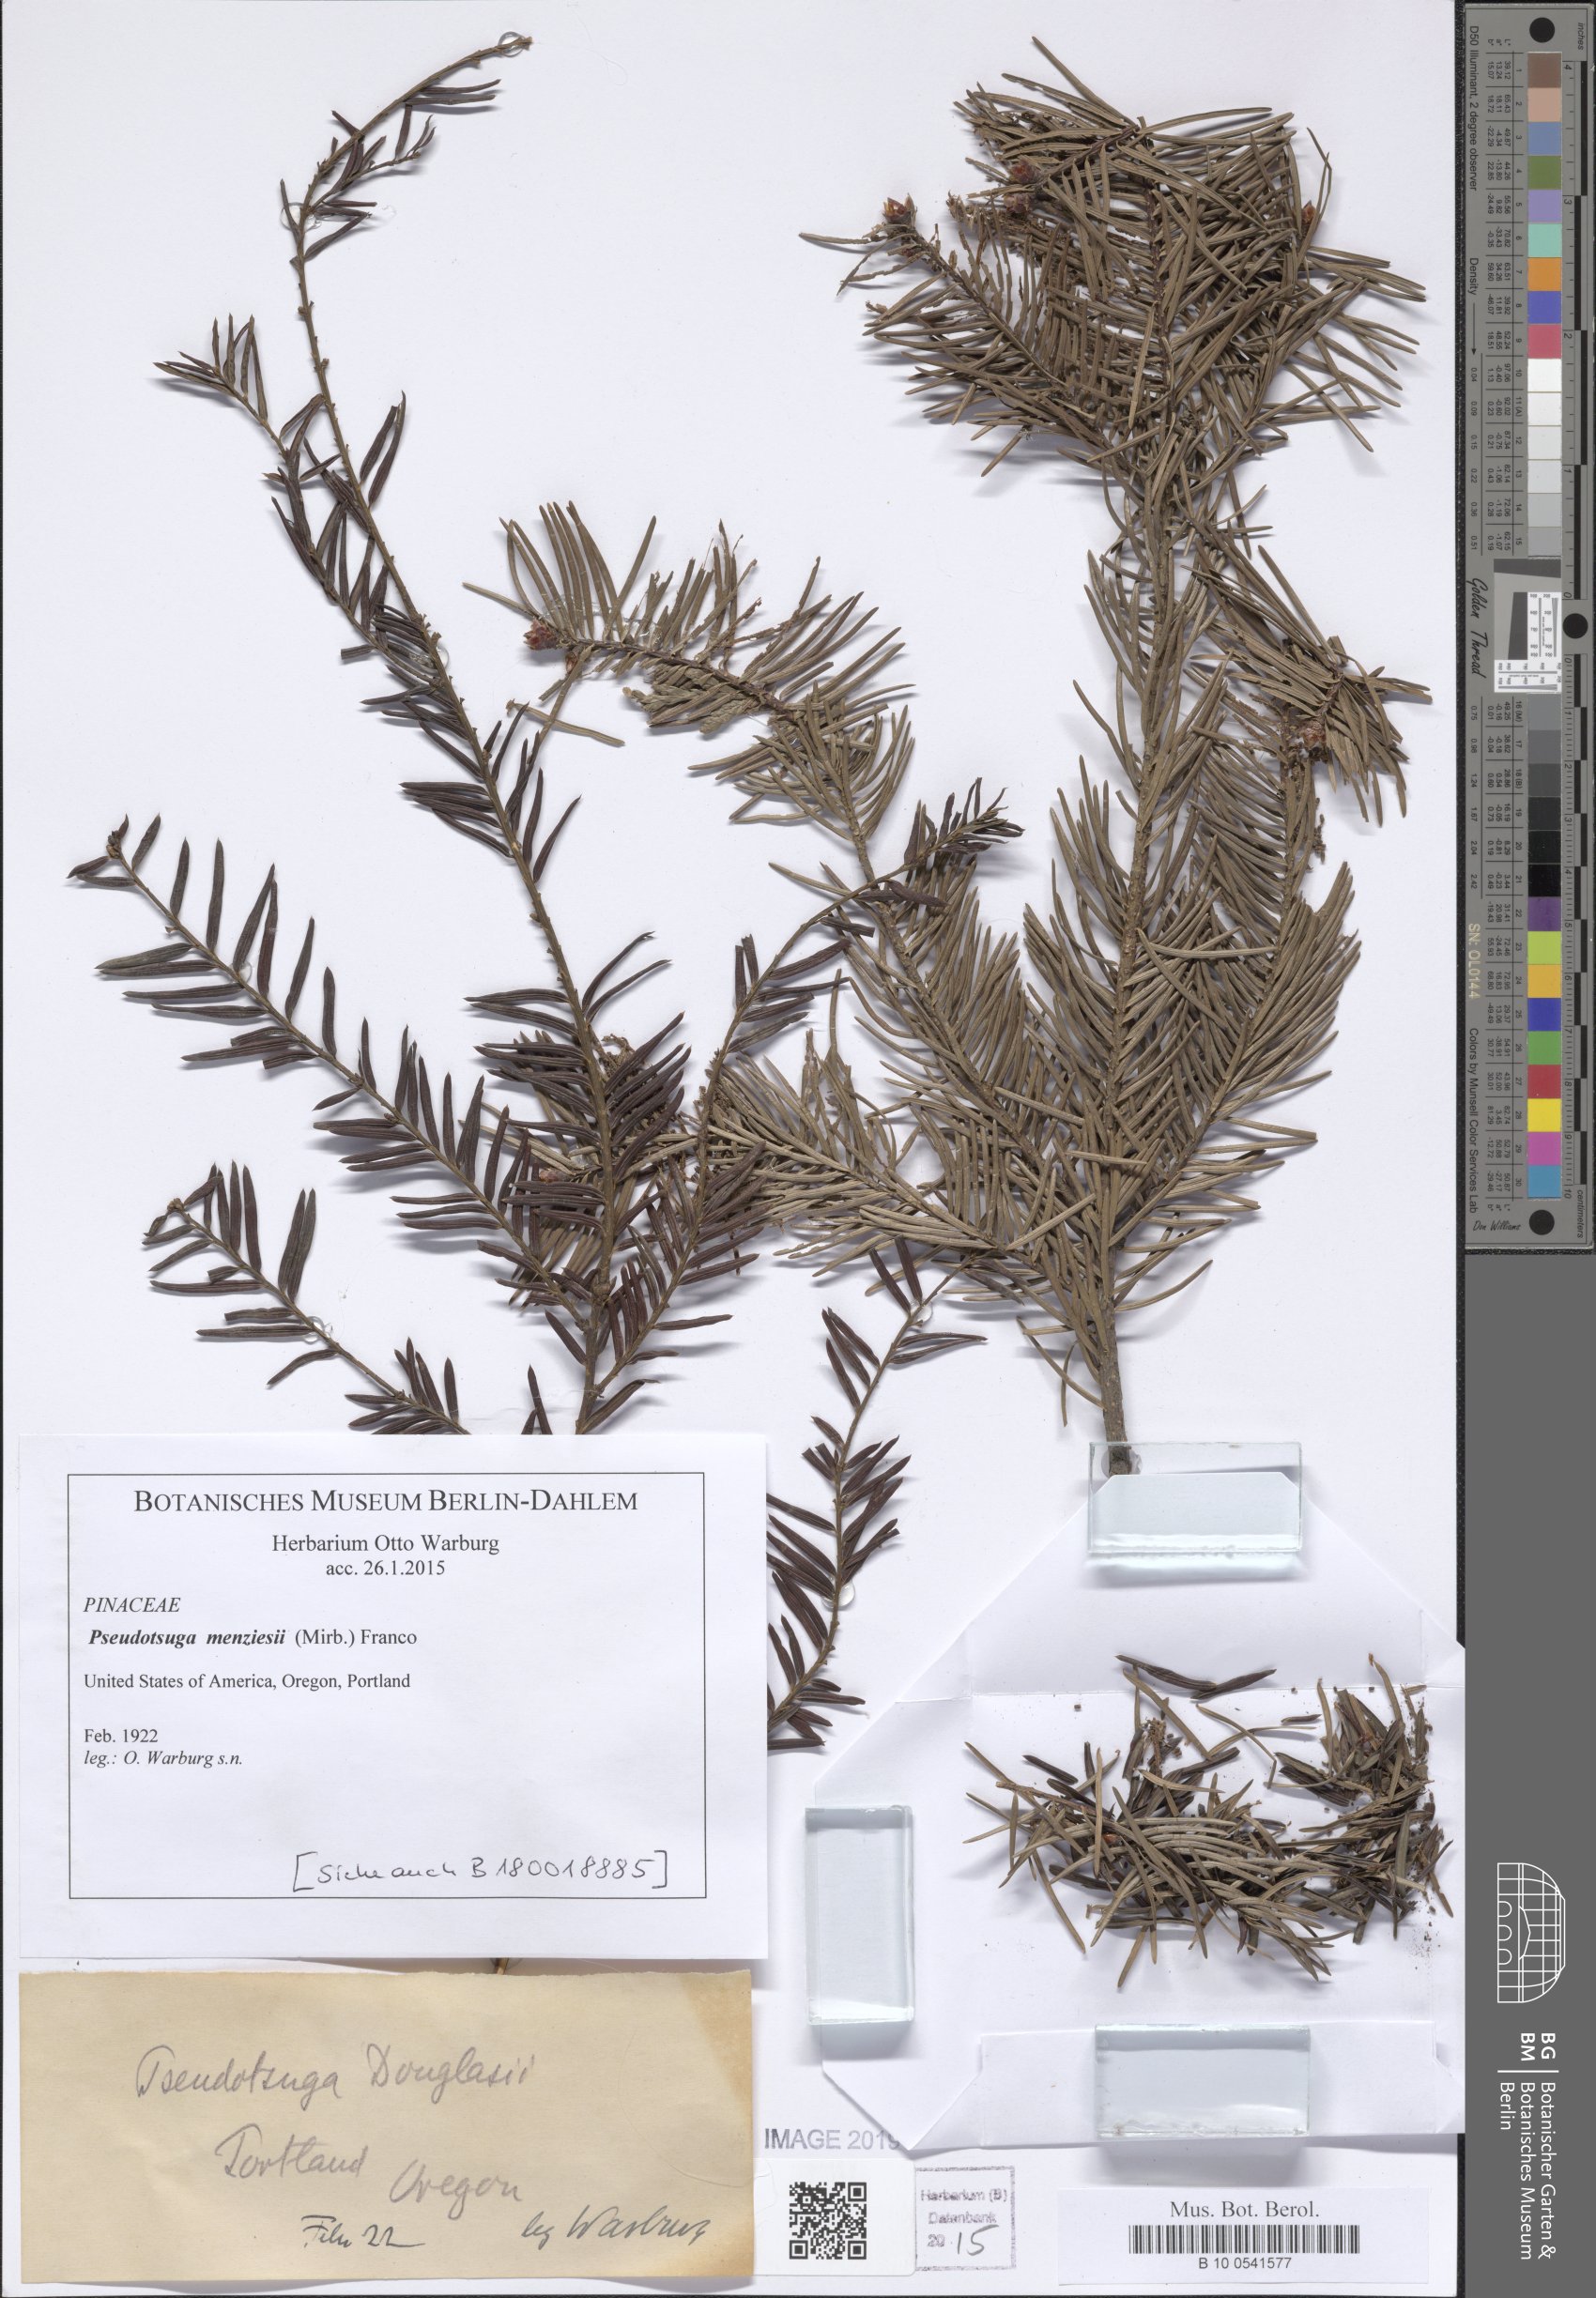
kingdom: Plantae
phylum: Tracheophyta
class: Pinopsida
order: Pinales
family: Pinaceae
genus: Pseudotsuga
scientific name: Pseudotsuga menziesii
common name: Douglas fir
